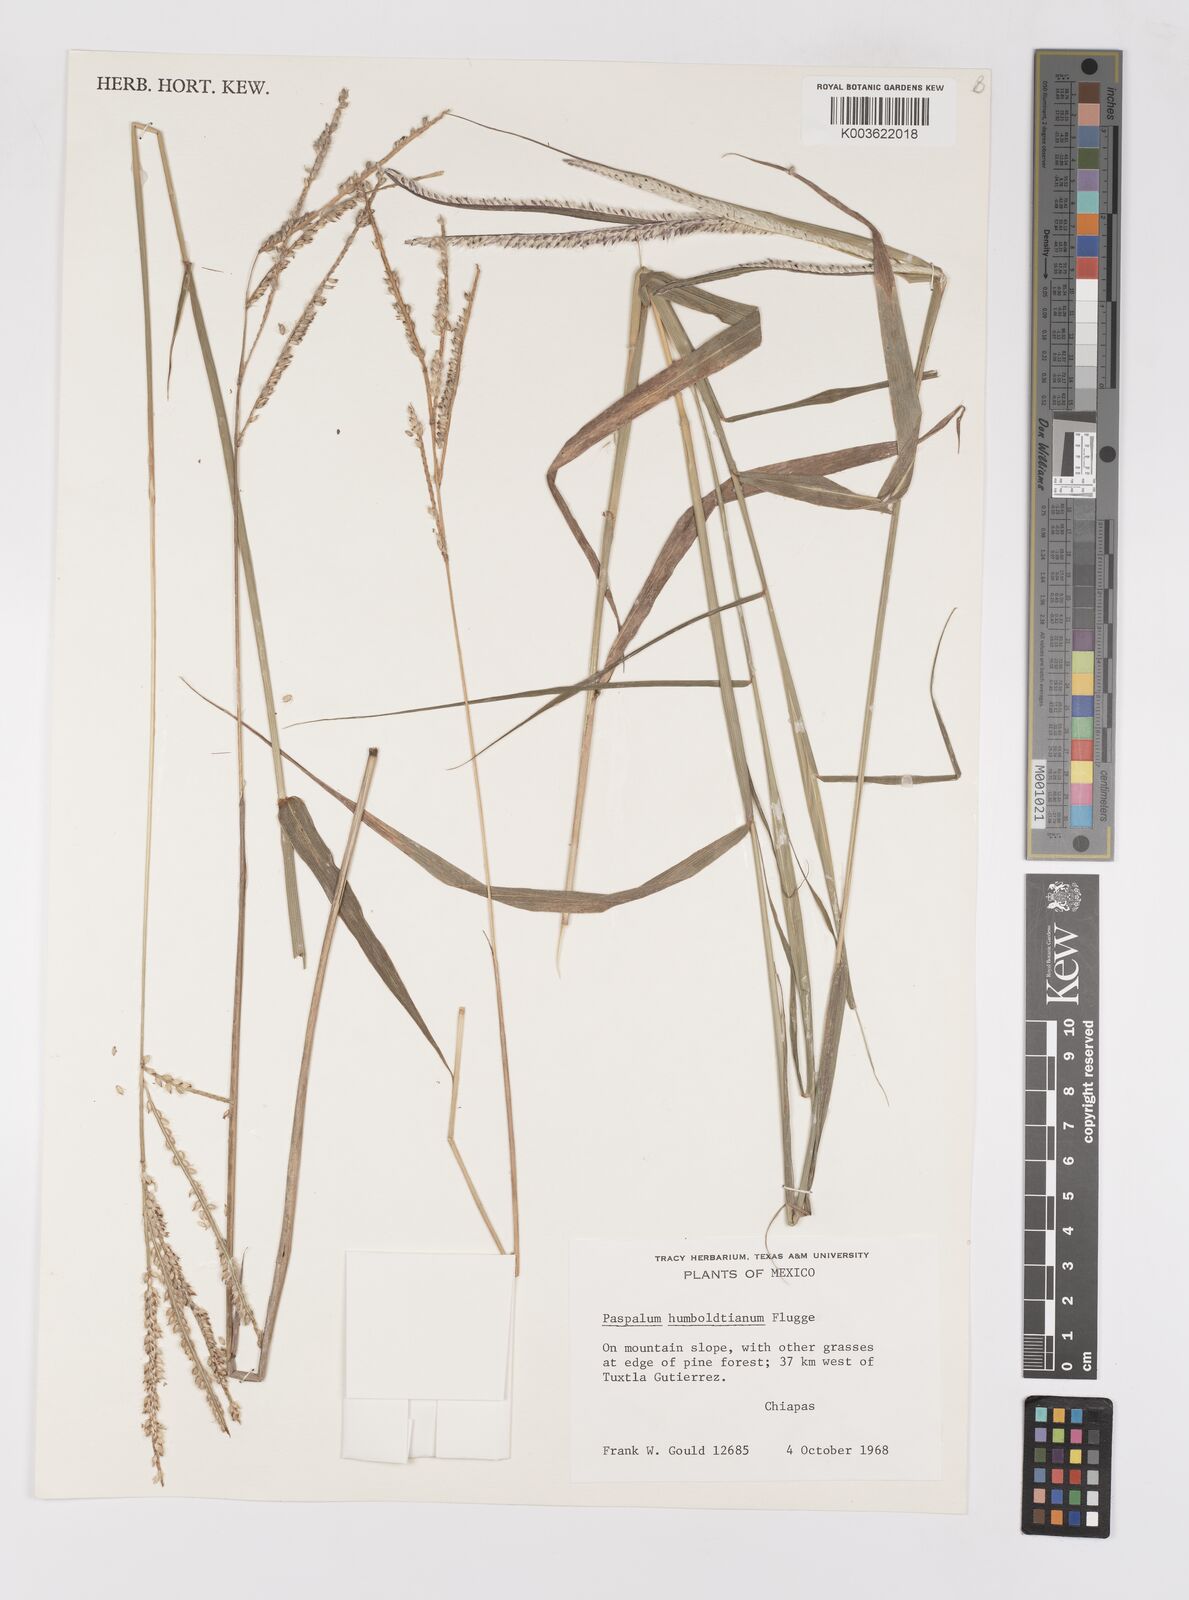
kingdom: Plantae
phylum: Tracheophyta
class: Liliopsida
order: Poales
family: Poaceae
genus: Paspalum
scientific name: Paspalum humboldtianum
